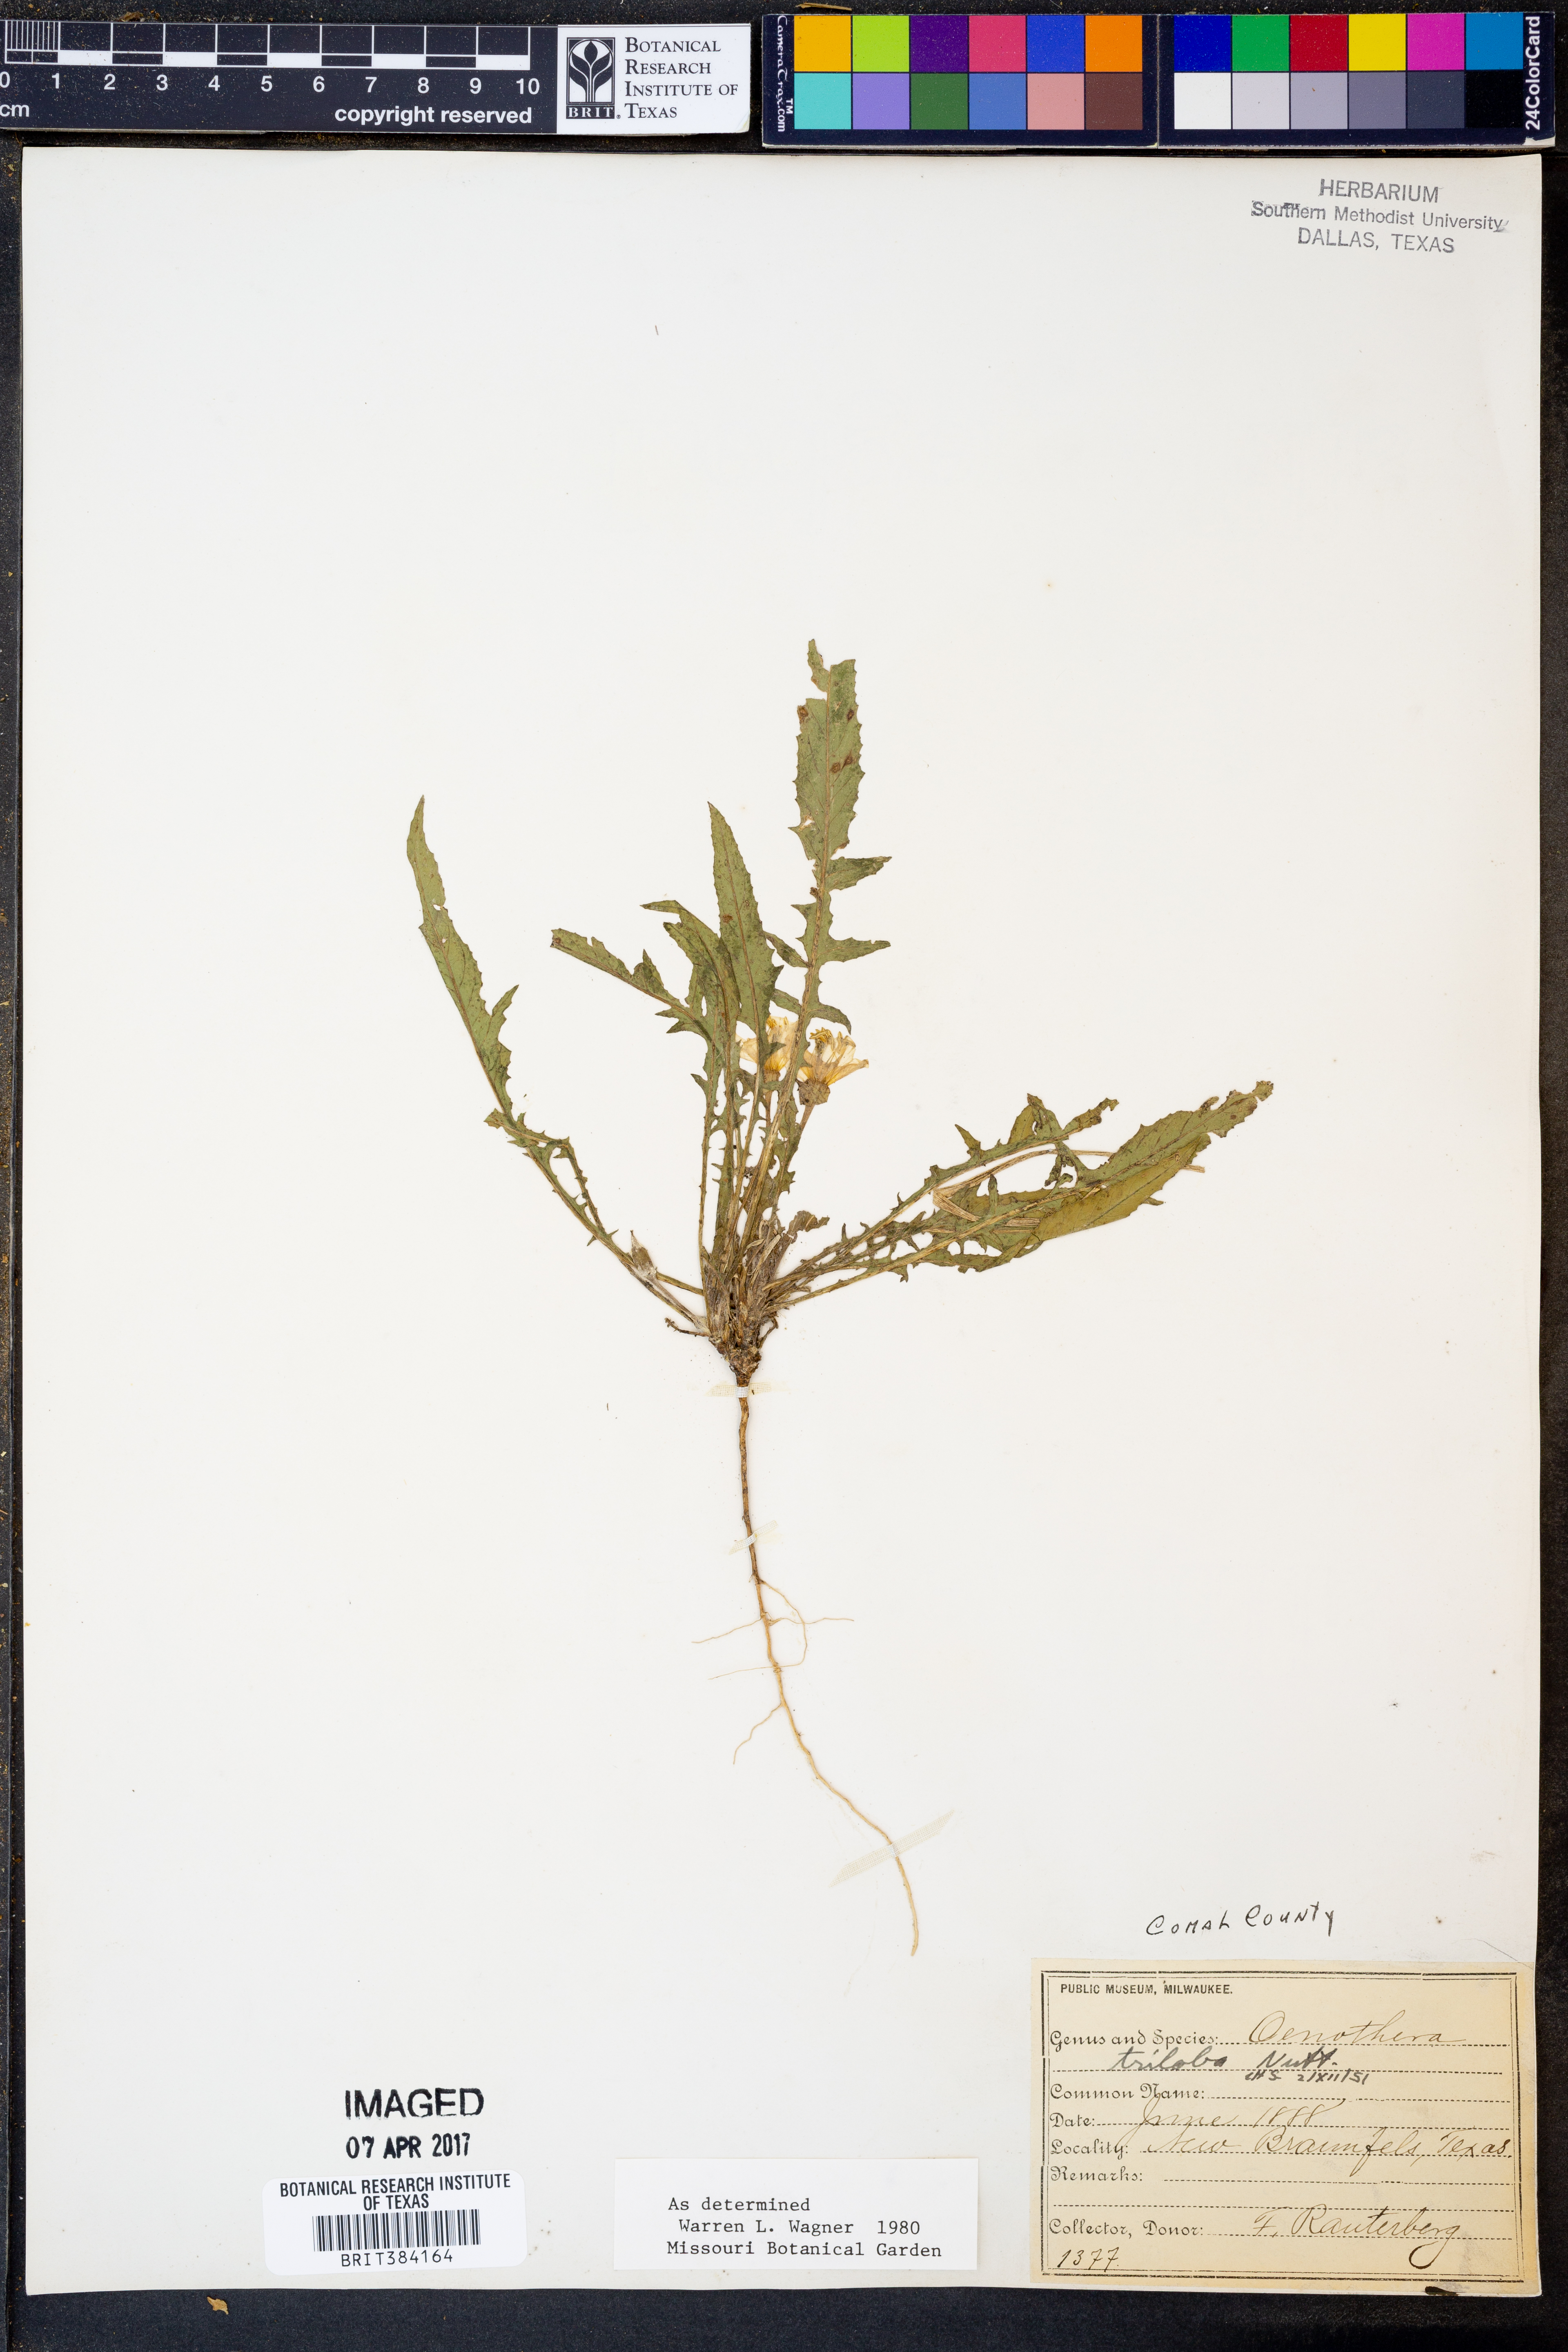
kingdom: Plantae
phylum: Tracheophyta
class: Magnoliopsida
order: Myrtales
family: Onagraceae
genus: Oenothera
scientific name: Oenothera triloba
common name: Sessile evening-primrose
